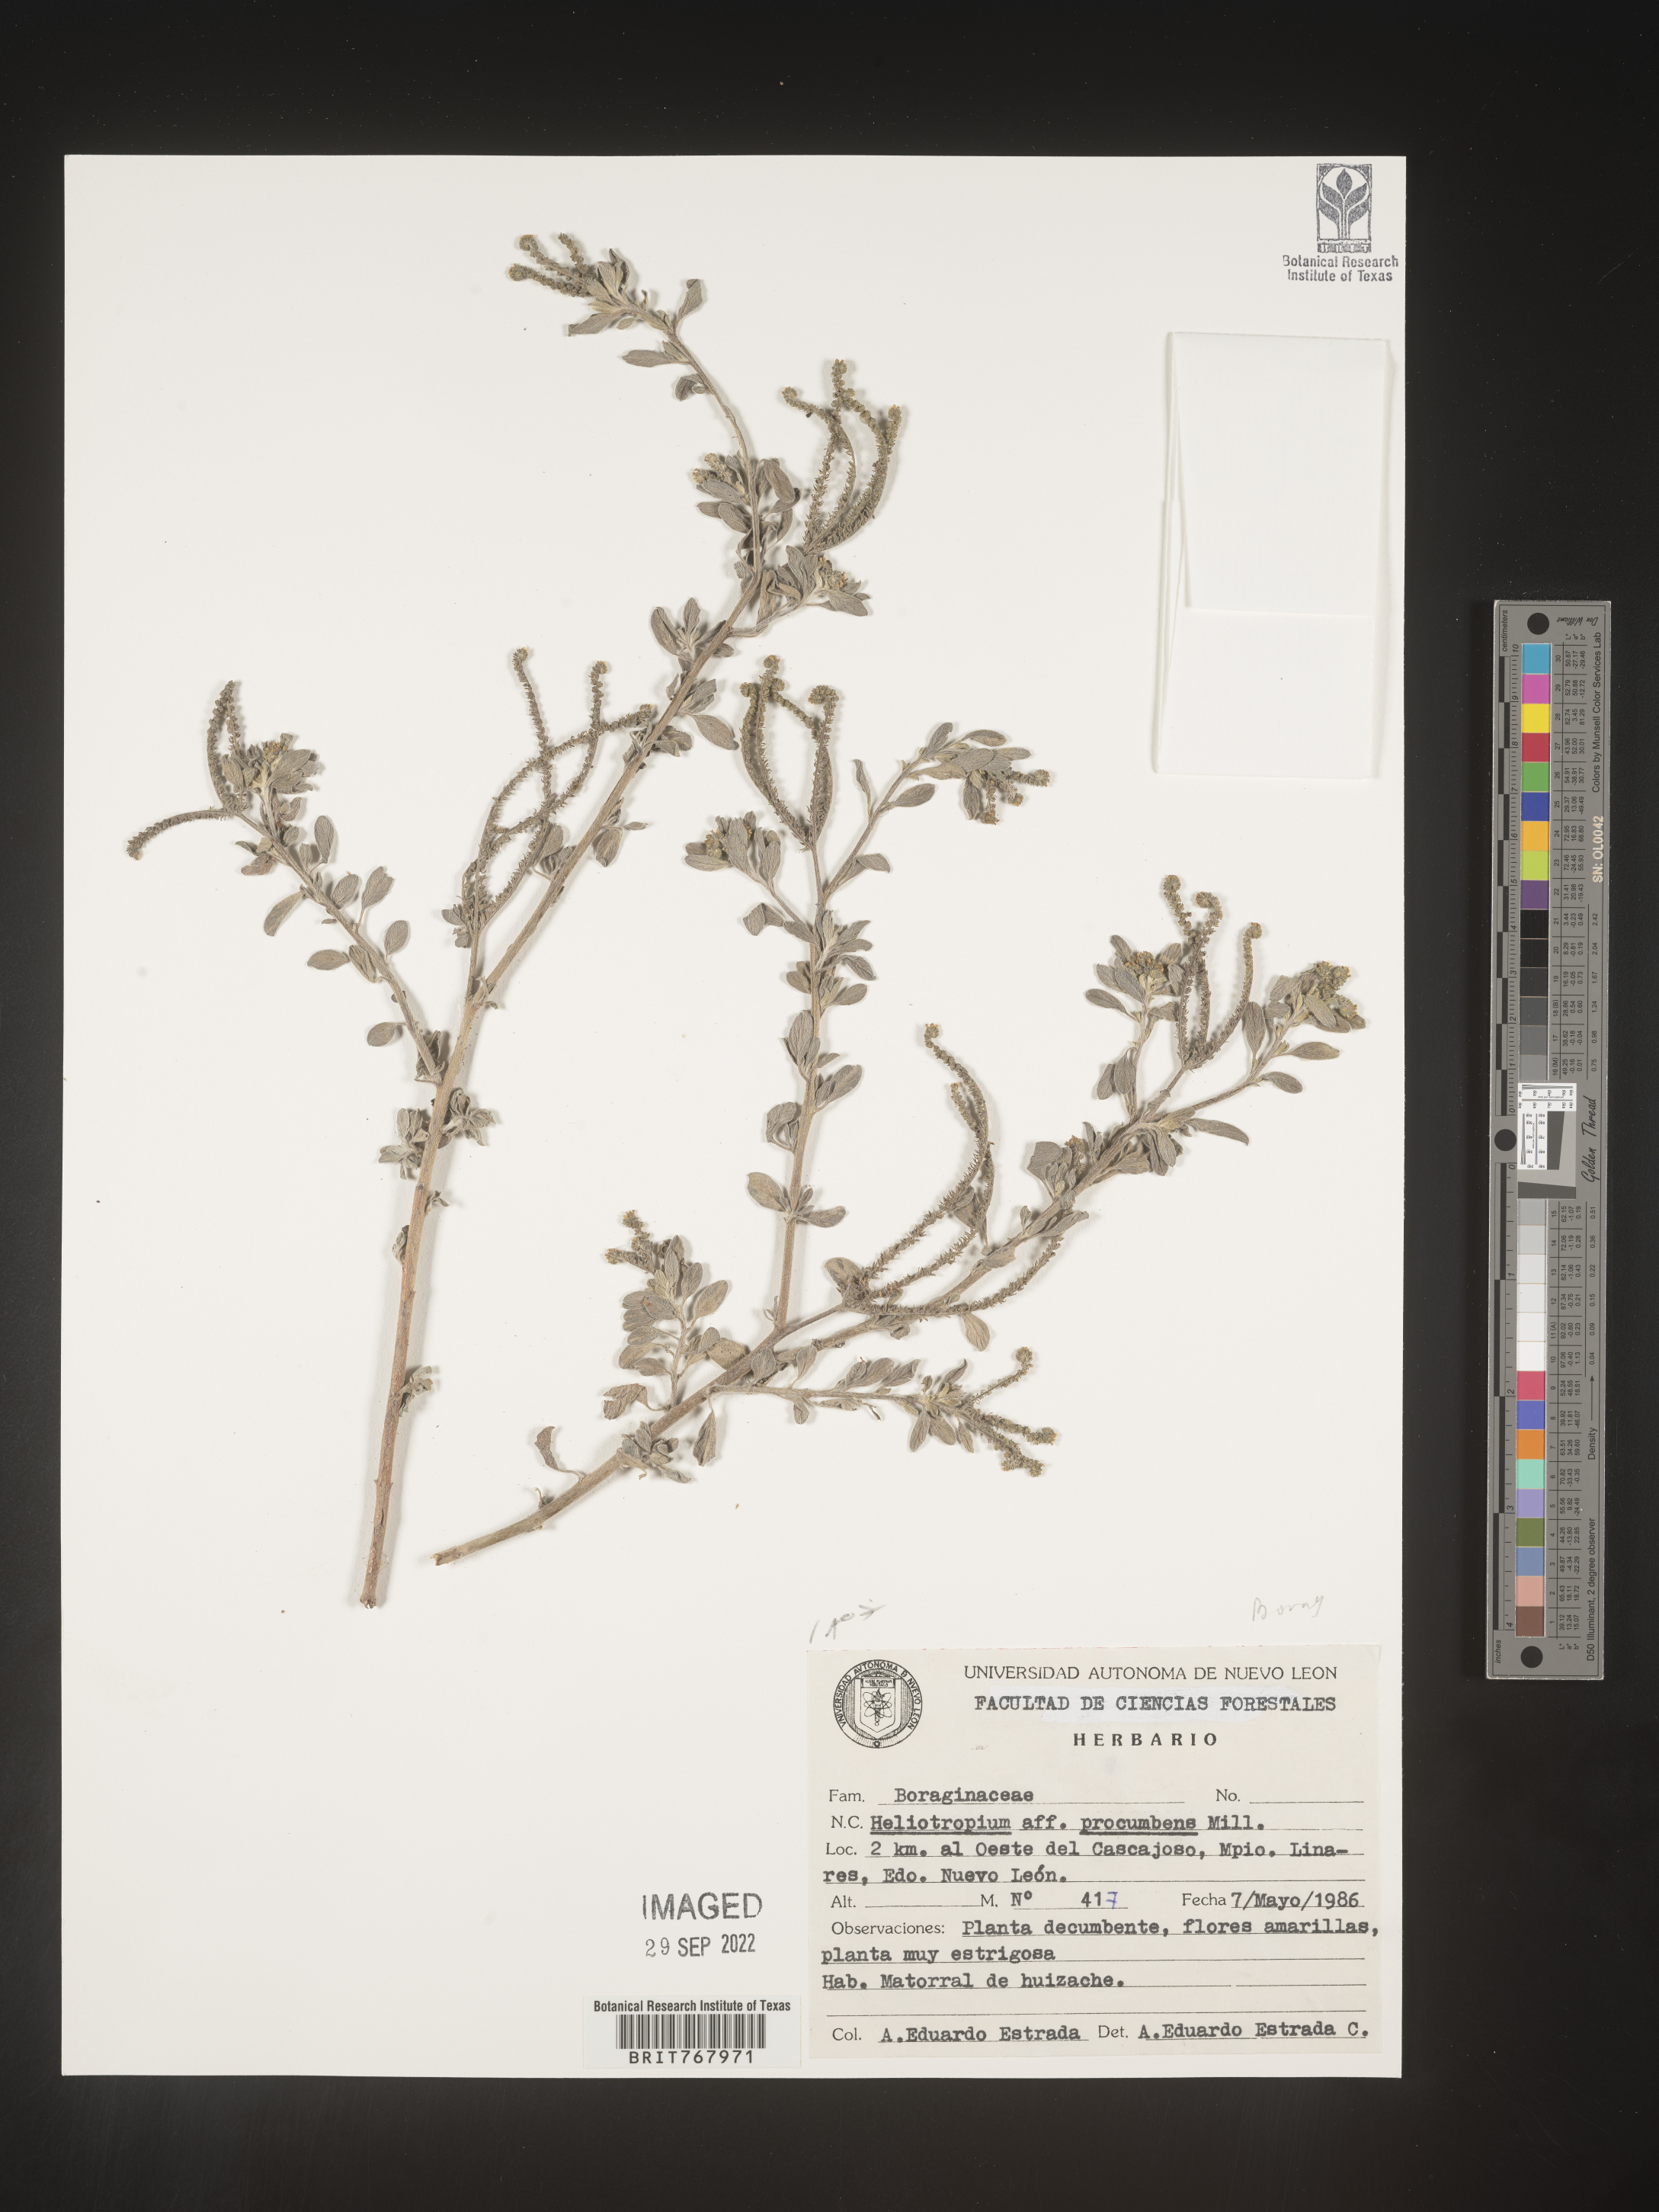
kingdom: Plantae
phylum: Tracheophyta
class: Magnoliopsida
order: Boraginales
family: Heliotropiaceae
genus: Heliotropium
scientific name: Heliotropium
